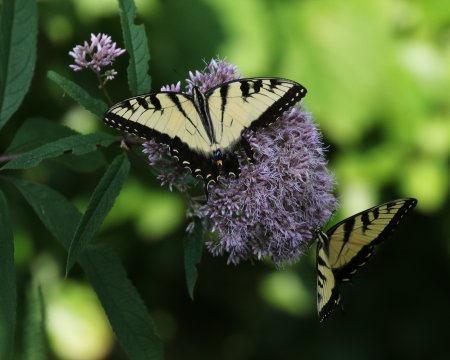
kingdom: Animalia
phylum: Arthropoda
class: Insecta
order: Lepidoptera
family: Papilionidae
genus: Pterourus
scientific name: Pterourus glaucus
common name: Eastern Tiger Swallowtail
